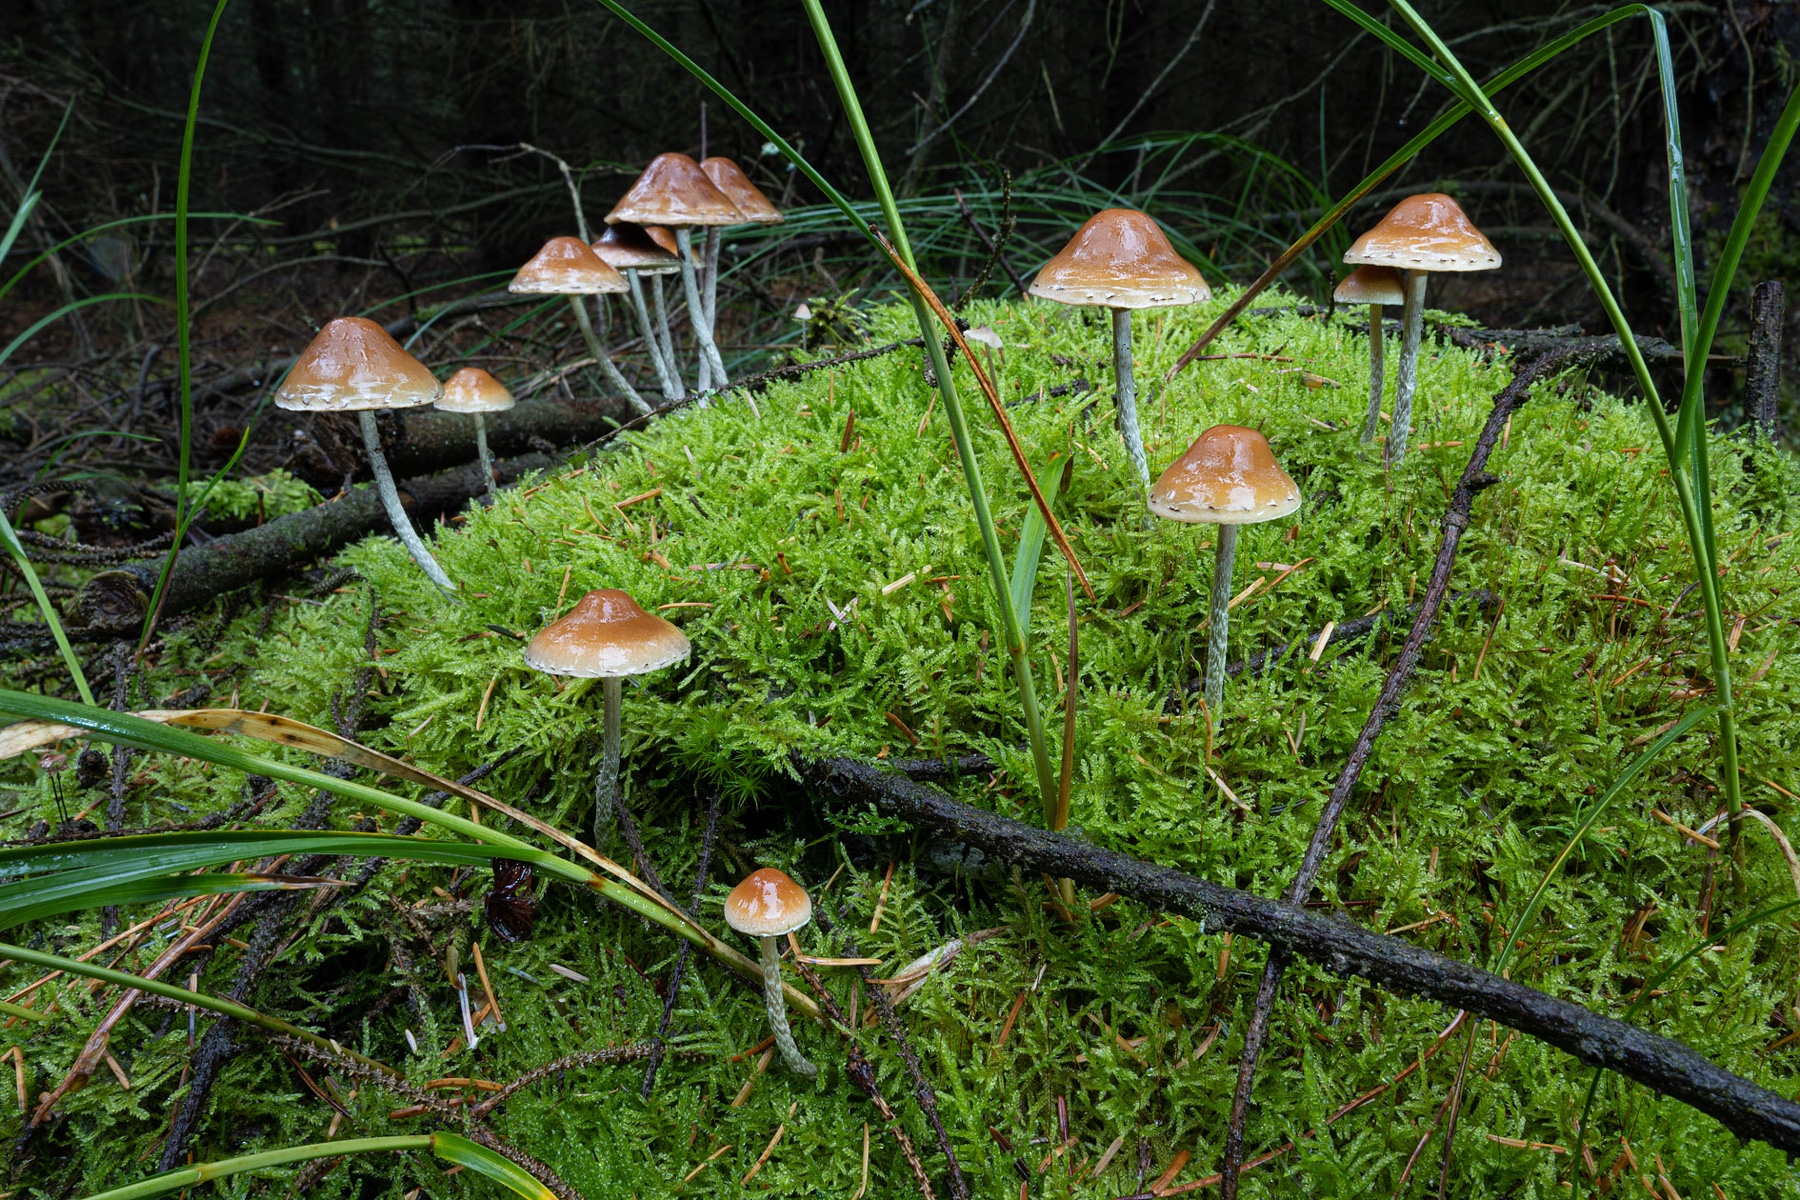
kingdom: Fungi
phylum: Basidiomycota
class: Agaricomycetes
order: Agaricales
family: Strophariaceae
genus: Hypholoma
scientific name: Hypholoma marginatum
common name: enlig svovlhat
